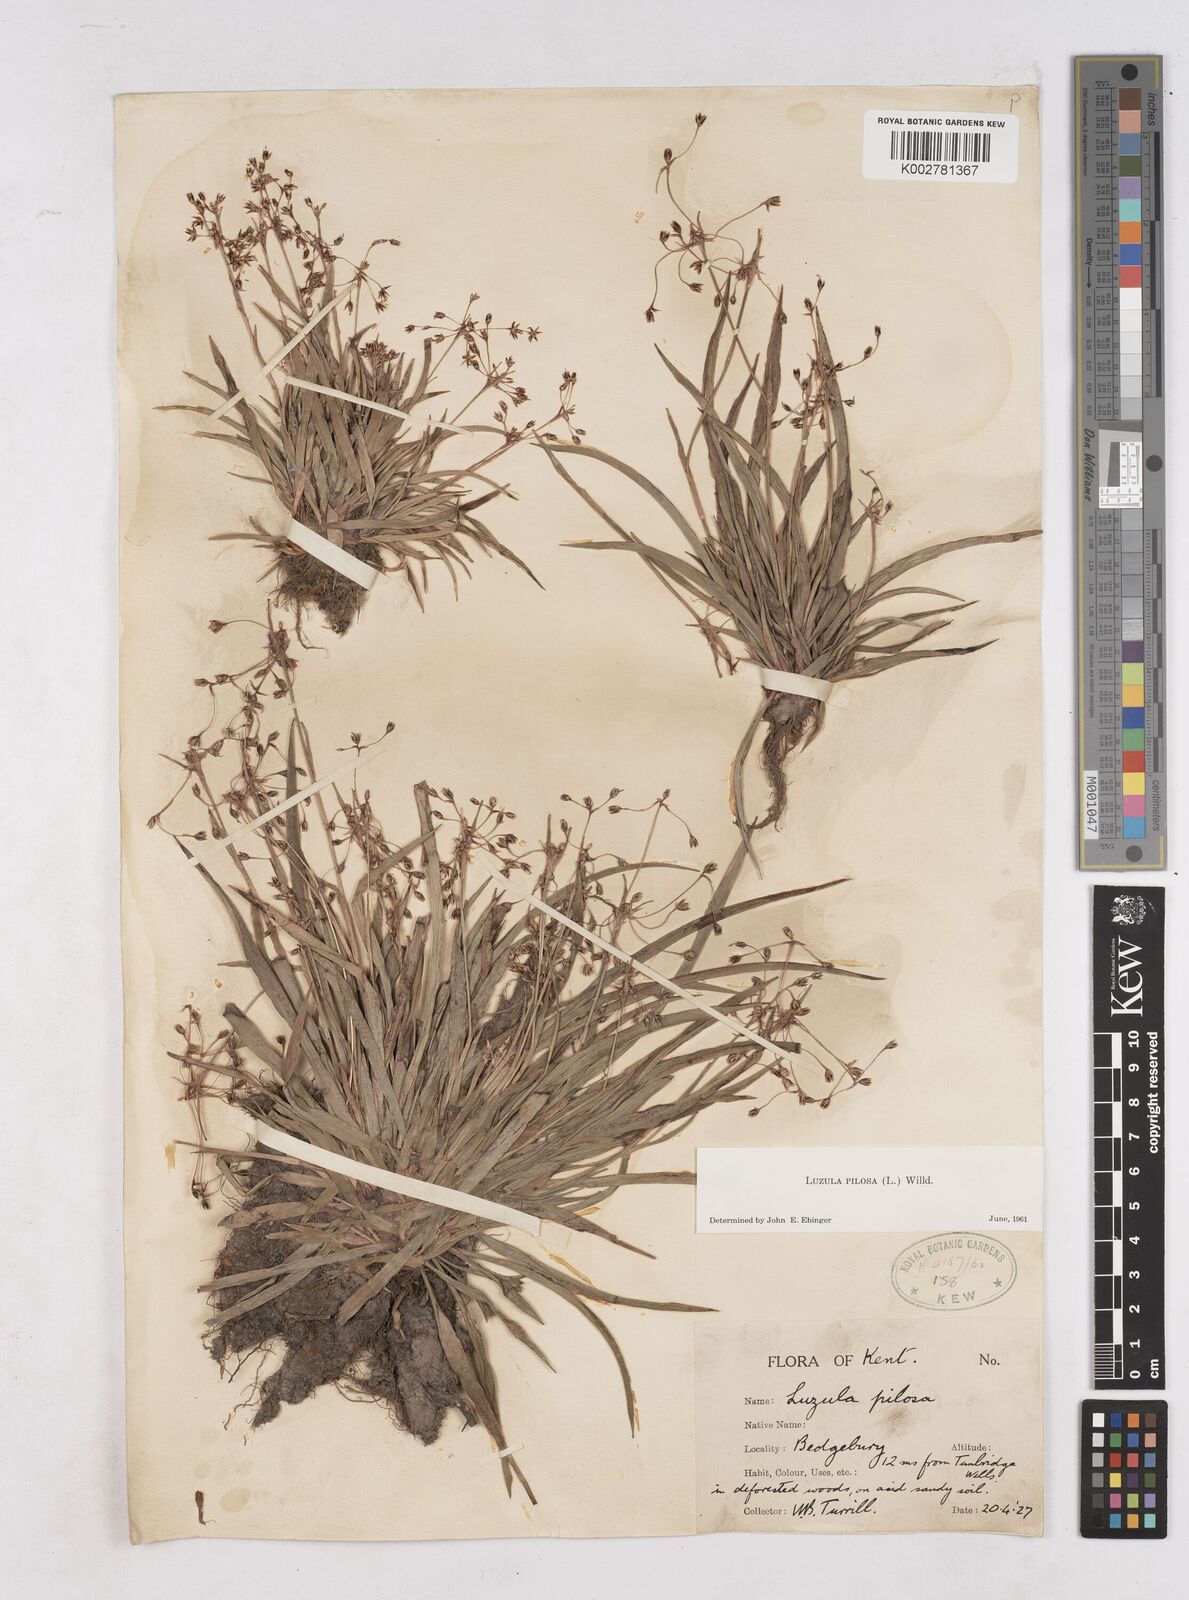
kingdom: Plantae
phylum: Tracheophyta
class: Liliopsida
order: Poales
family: Juncaceae
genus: Luzula
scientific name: Luzula pilosa
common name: Hairy wood-rush
